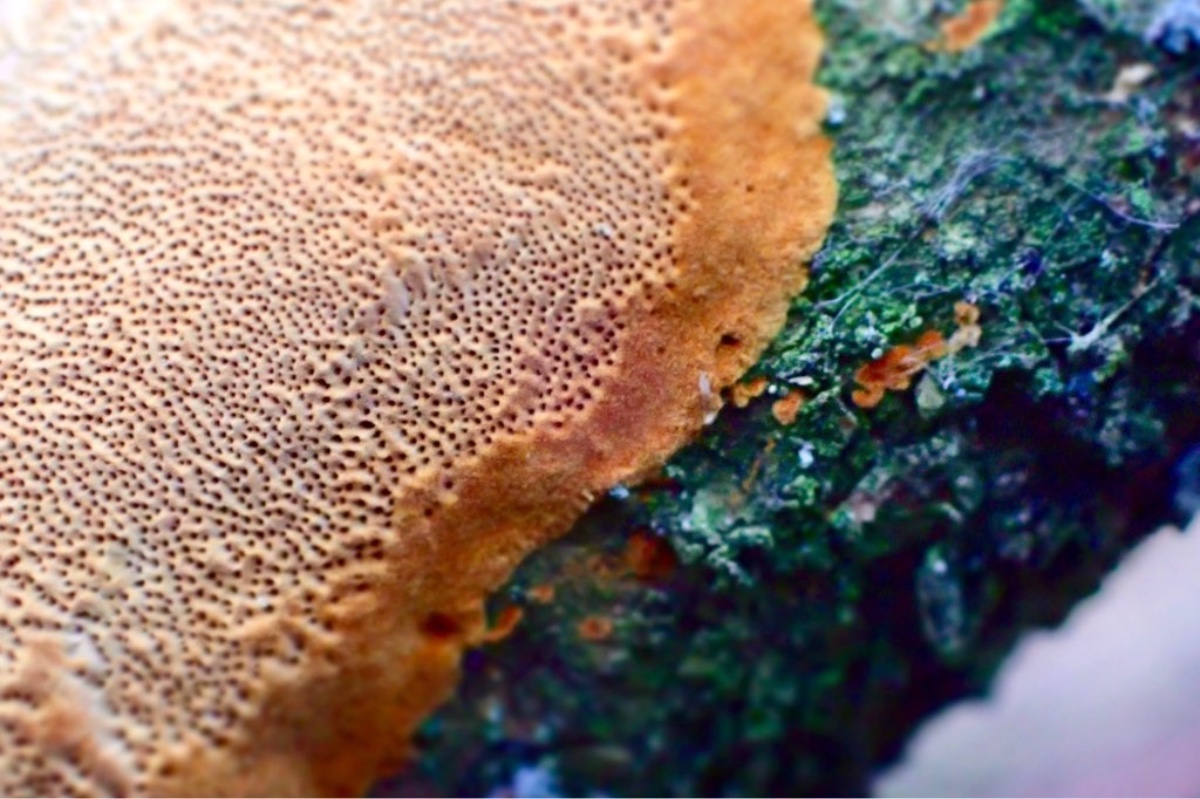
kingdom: Fungi
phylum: Basidiomycota
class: Agaricomycetes
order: Hymenochaetales
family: Hymenochaetaceae
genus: Fuscoporia
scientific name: Fuscoporia ferrea
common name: skorpe-ildporesvamp
